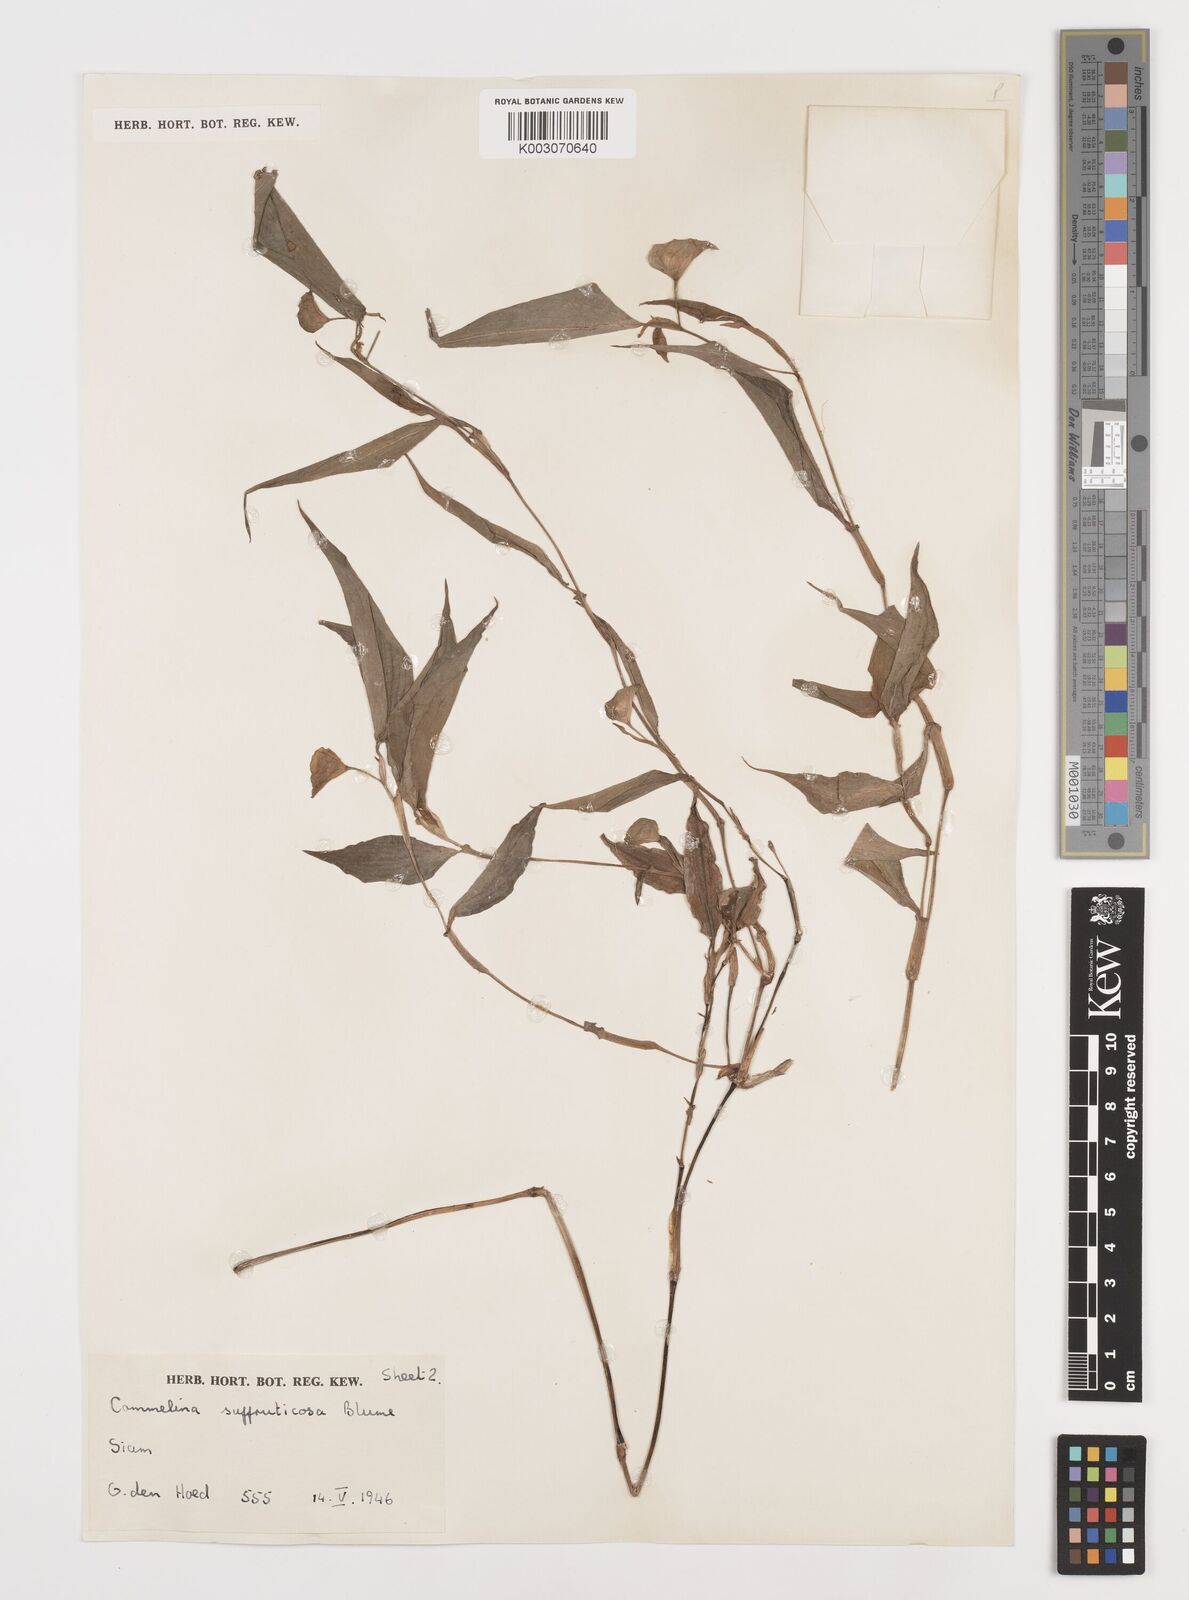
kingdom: Plantae
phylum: Tracheophyta
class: Liliopsida
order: Commelinales
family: Commelinaceae
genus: Commelina
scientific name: Commelina suffruticosa
